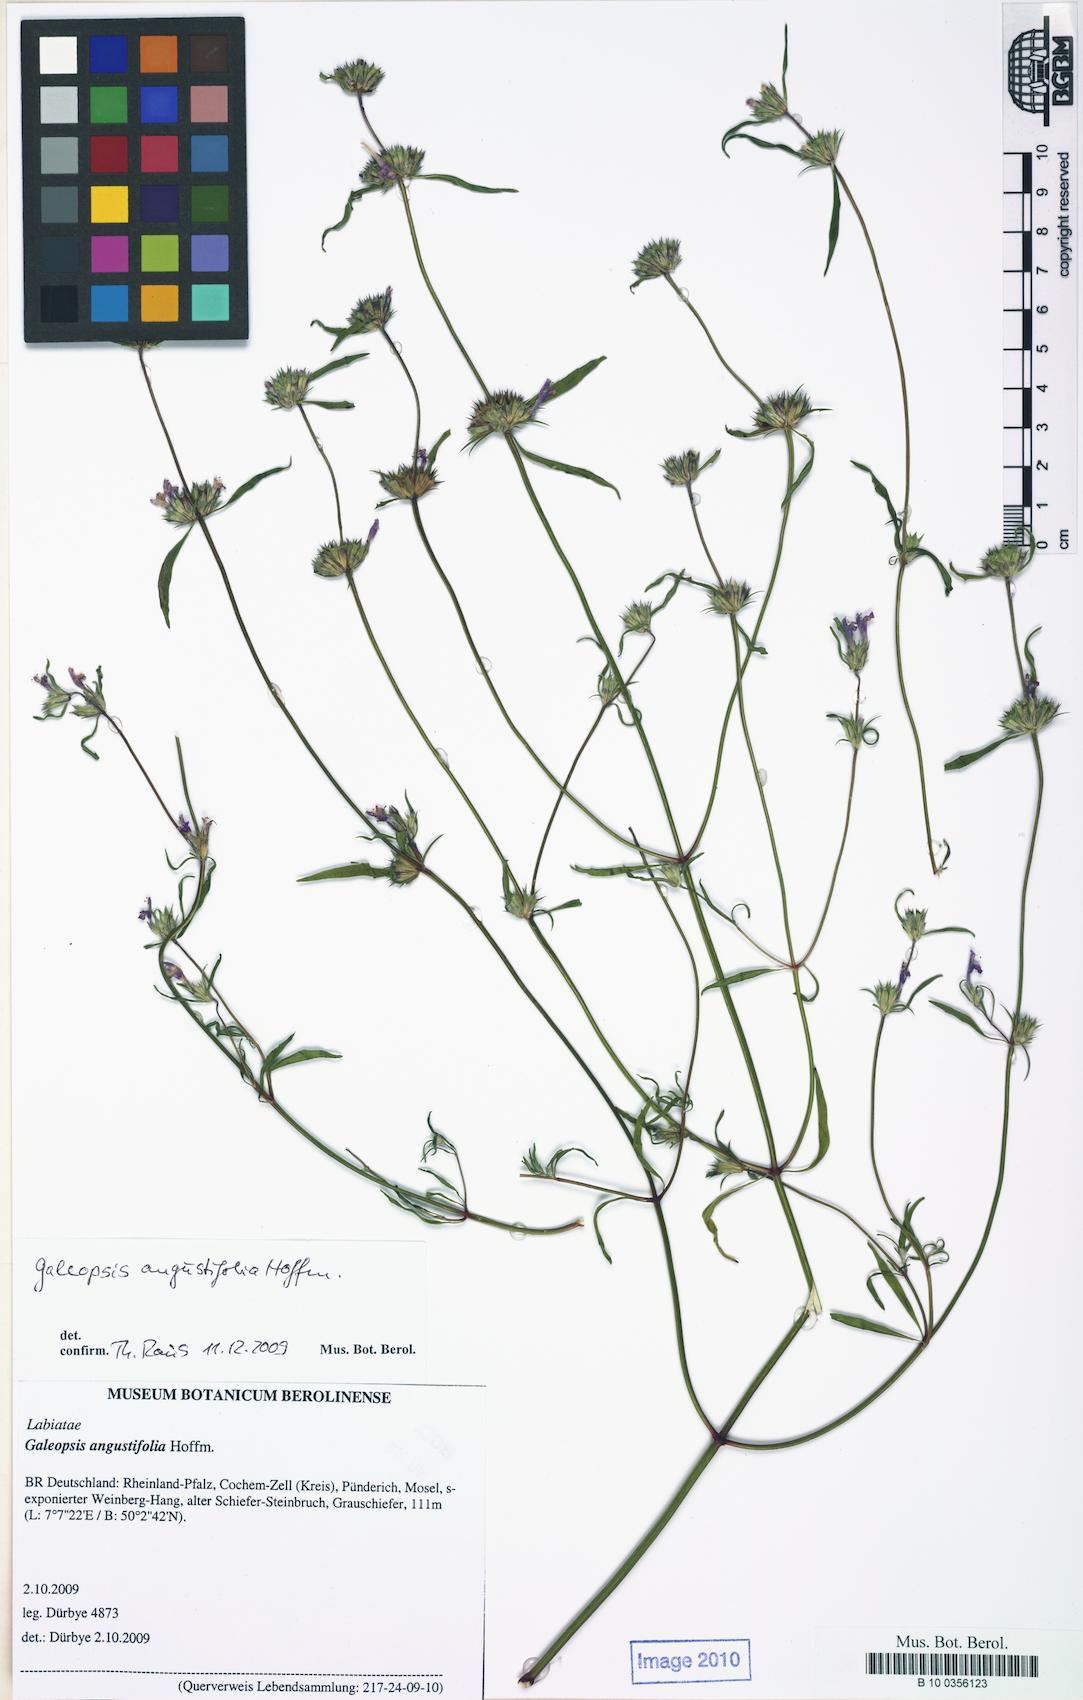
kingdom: Plantae
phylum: Tracheophyta
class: Magnoliopsida
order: Lamiales
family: Lamiaceae
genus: Galeopsis
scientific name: Galeopsis angustifolia
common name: Red hemp-nettle
